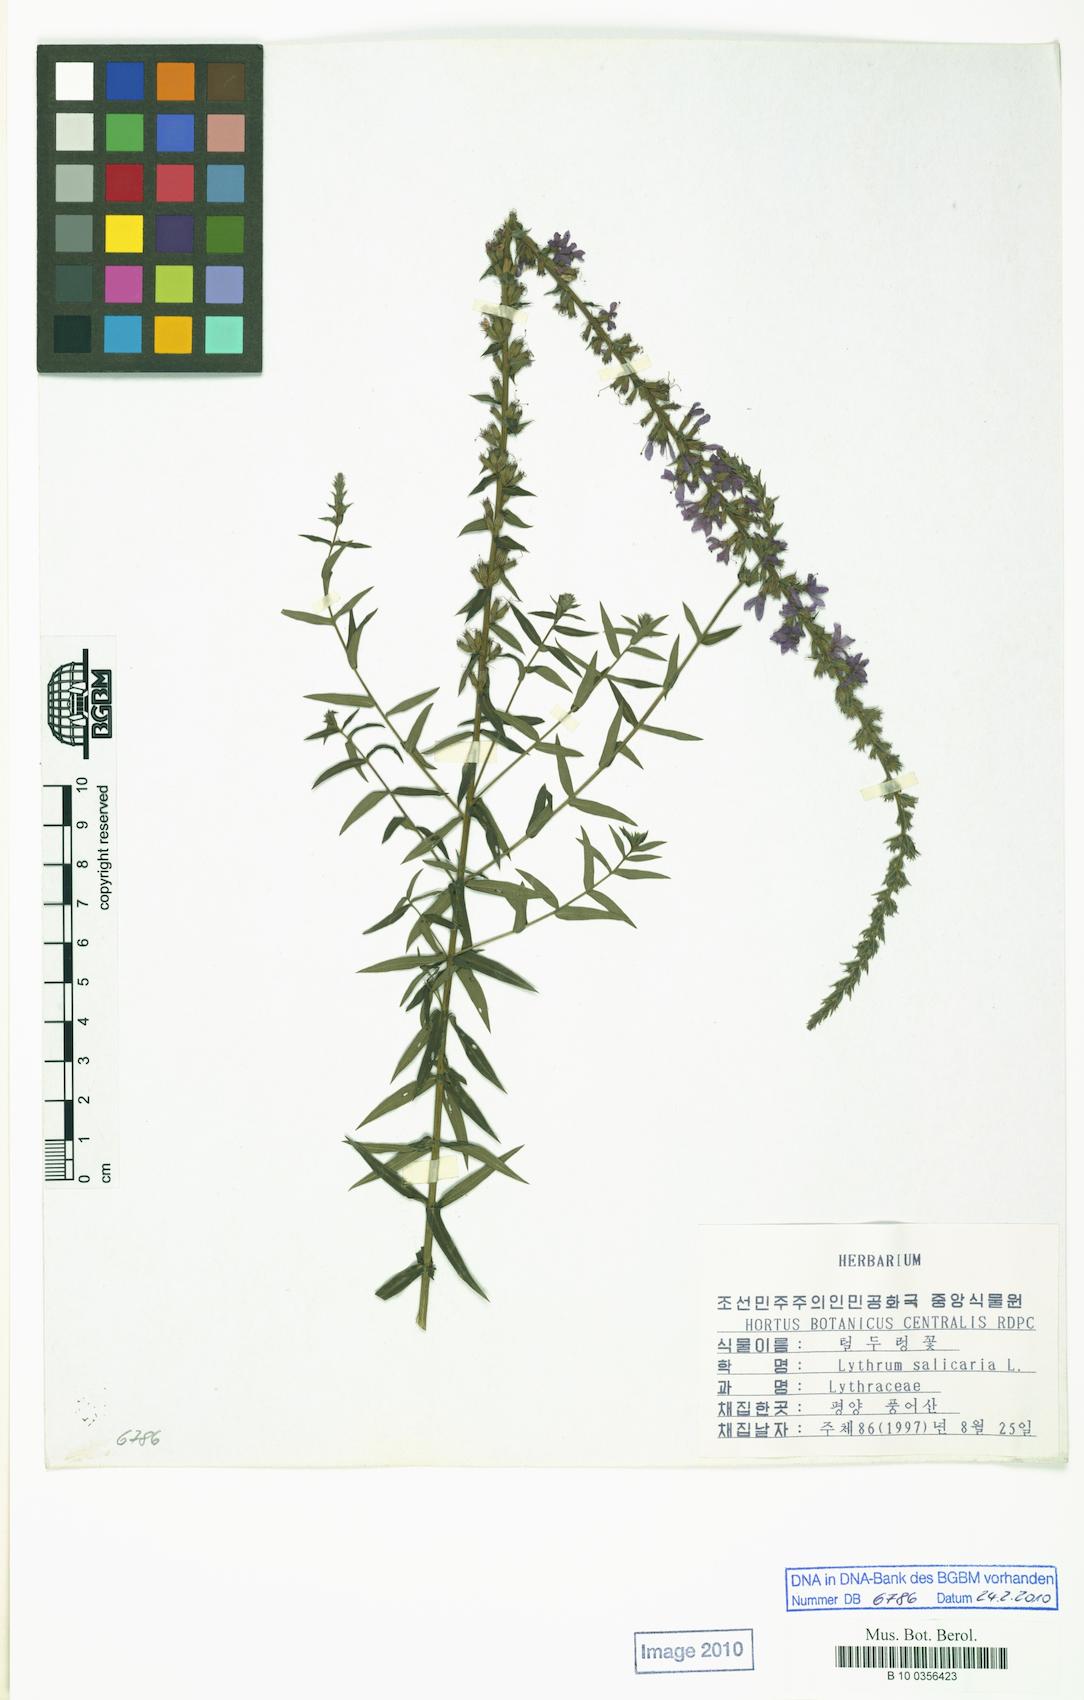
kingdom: Plantae
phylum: Tracheophyta
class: Magnoliopsida
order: Myrtales
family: Lythraceae
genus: Lythrum
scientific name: Lythrum salicaria
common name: Purple loosestrife
